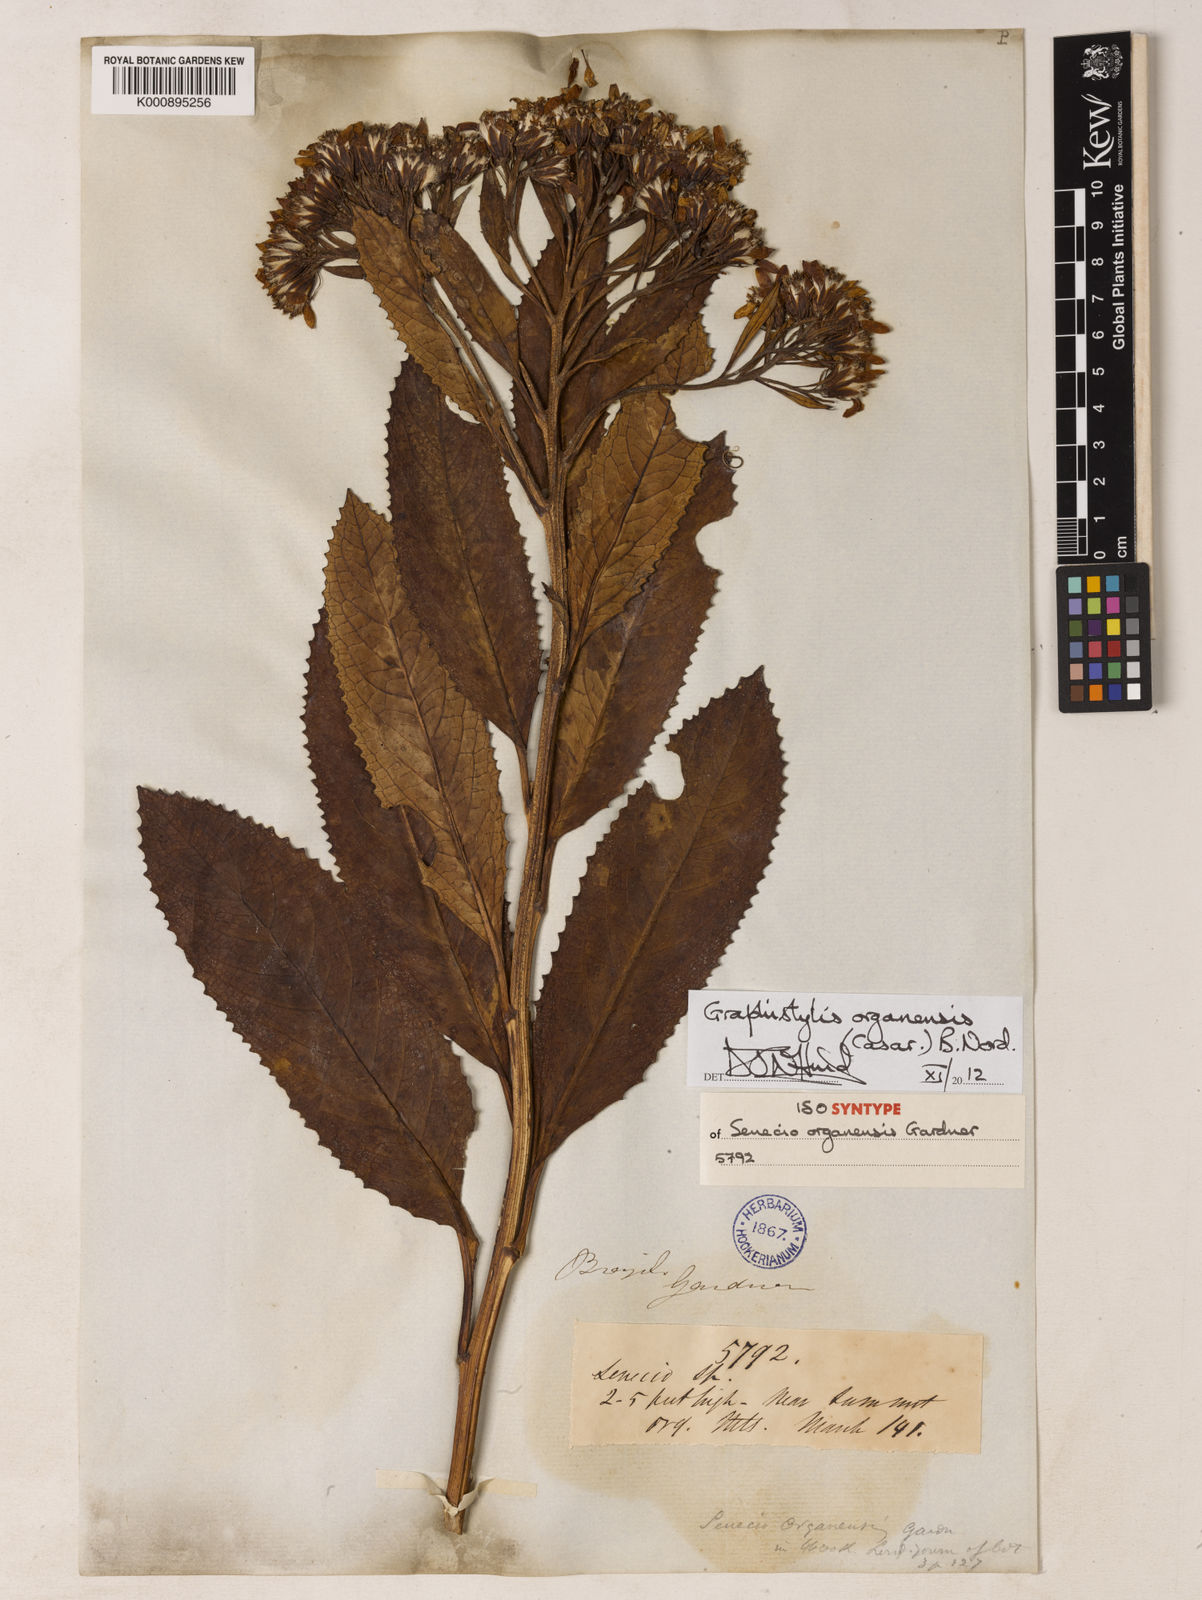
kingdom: Plantae
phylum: Tracheophyta
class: Magnoliopsida
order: Asterales
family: Asteraceae
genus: Graphistylis
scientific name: Graphistylis organensis
